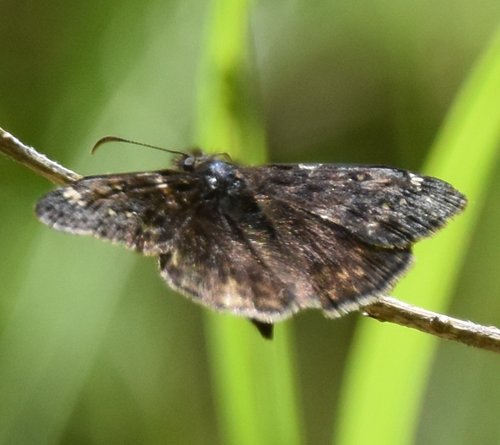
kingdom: Animalia
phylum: Arthropoda
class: Insecta
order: Lepidoptera
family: Hesperiidae
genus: Erynnis
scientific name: Erynnis
